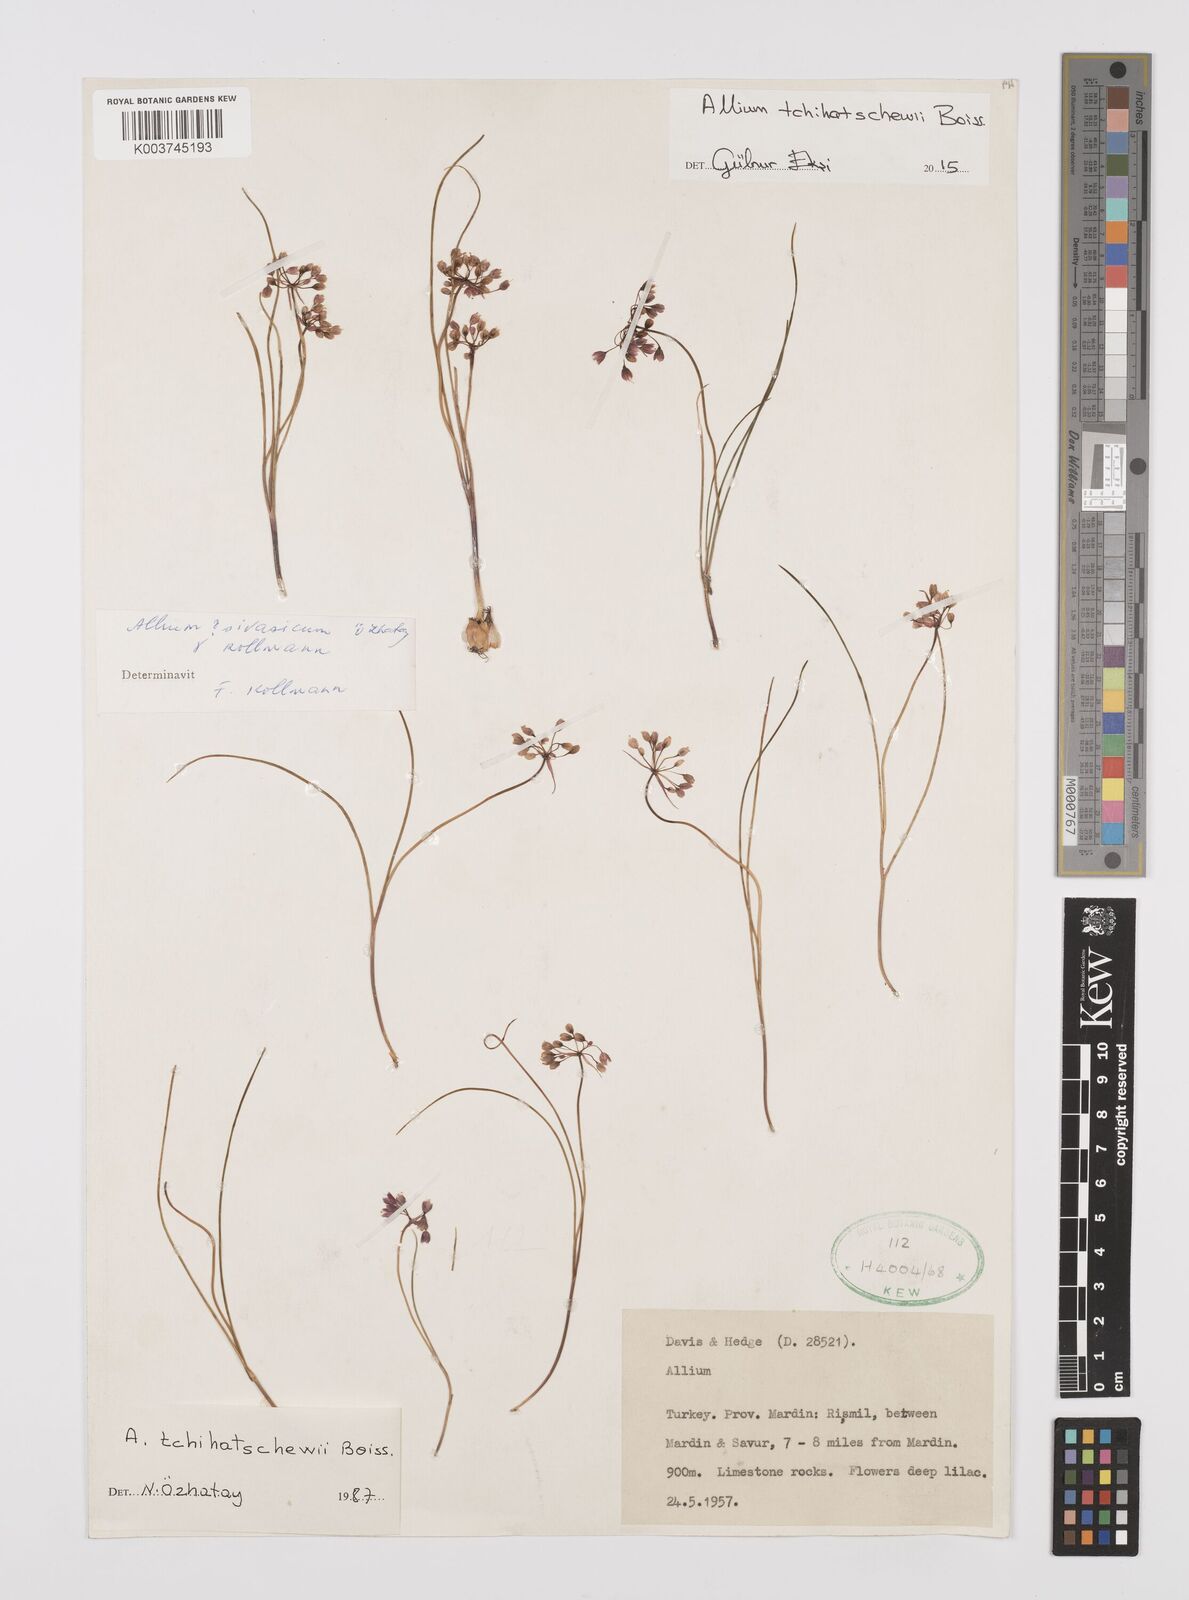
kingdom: Plantae
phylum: Tracheophyta
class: Liliopsida
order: Asparagales
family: Amaryllidaceae
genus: Allium
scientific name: Allium tchihatschewii
